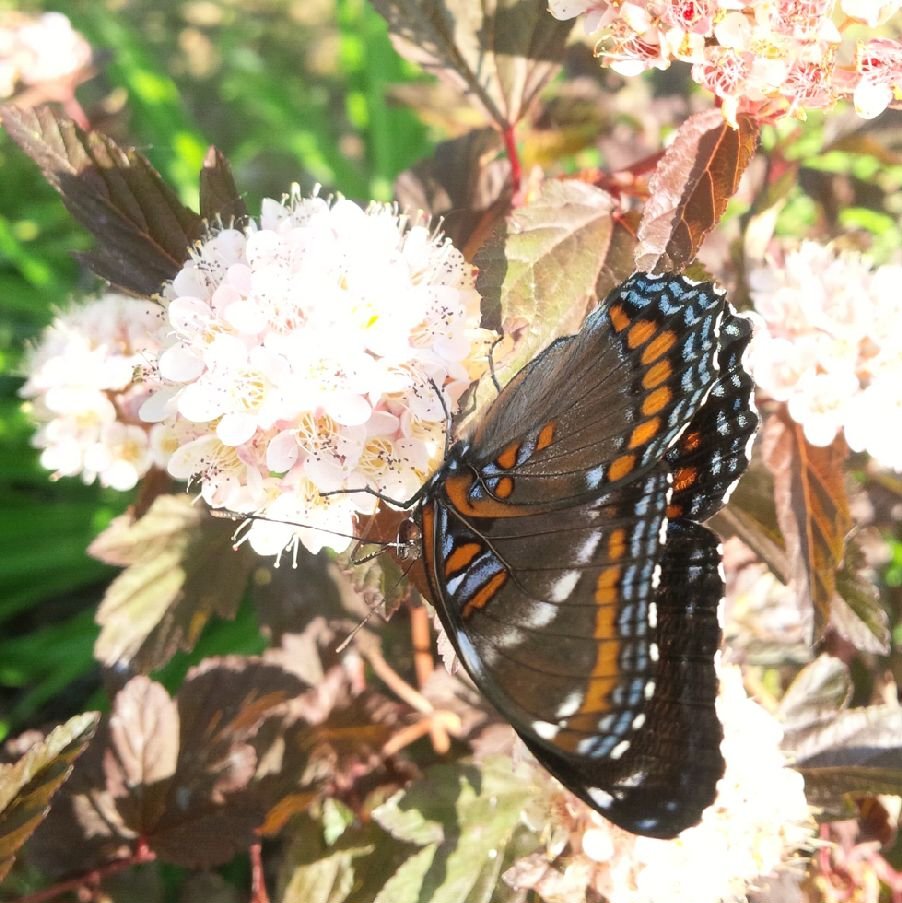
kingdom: Animalia
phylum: Arthropoda
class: Insecta
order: Lepidoptera
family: Nymphalidae
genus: Limenitis
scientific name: Limenitis astyanax
